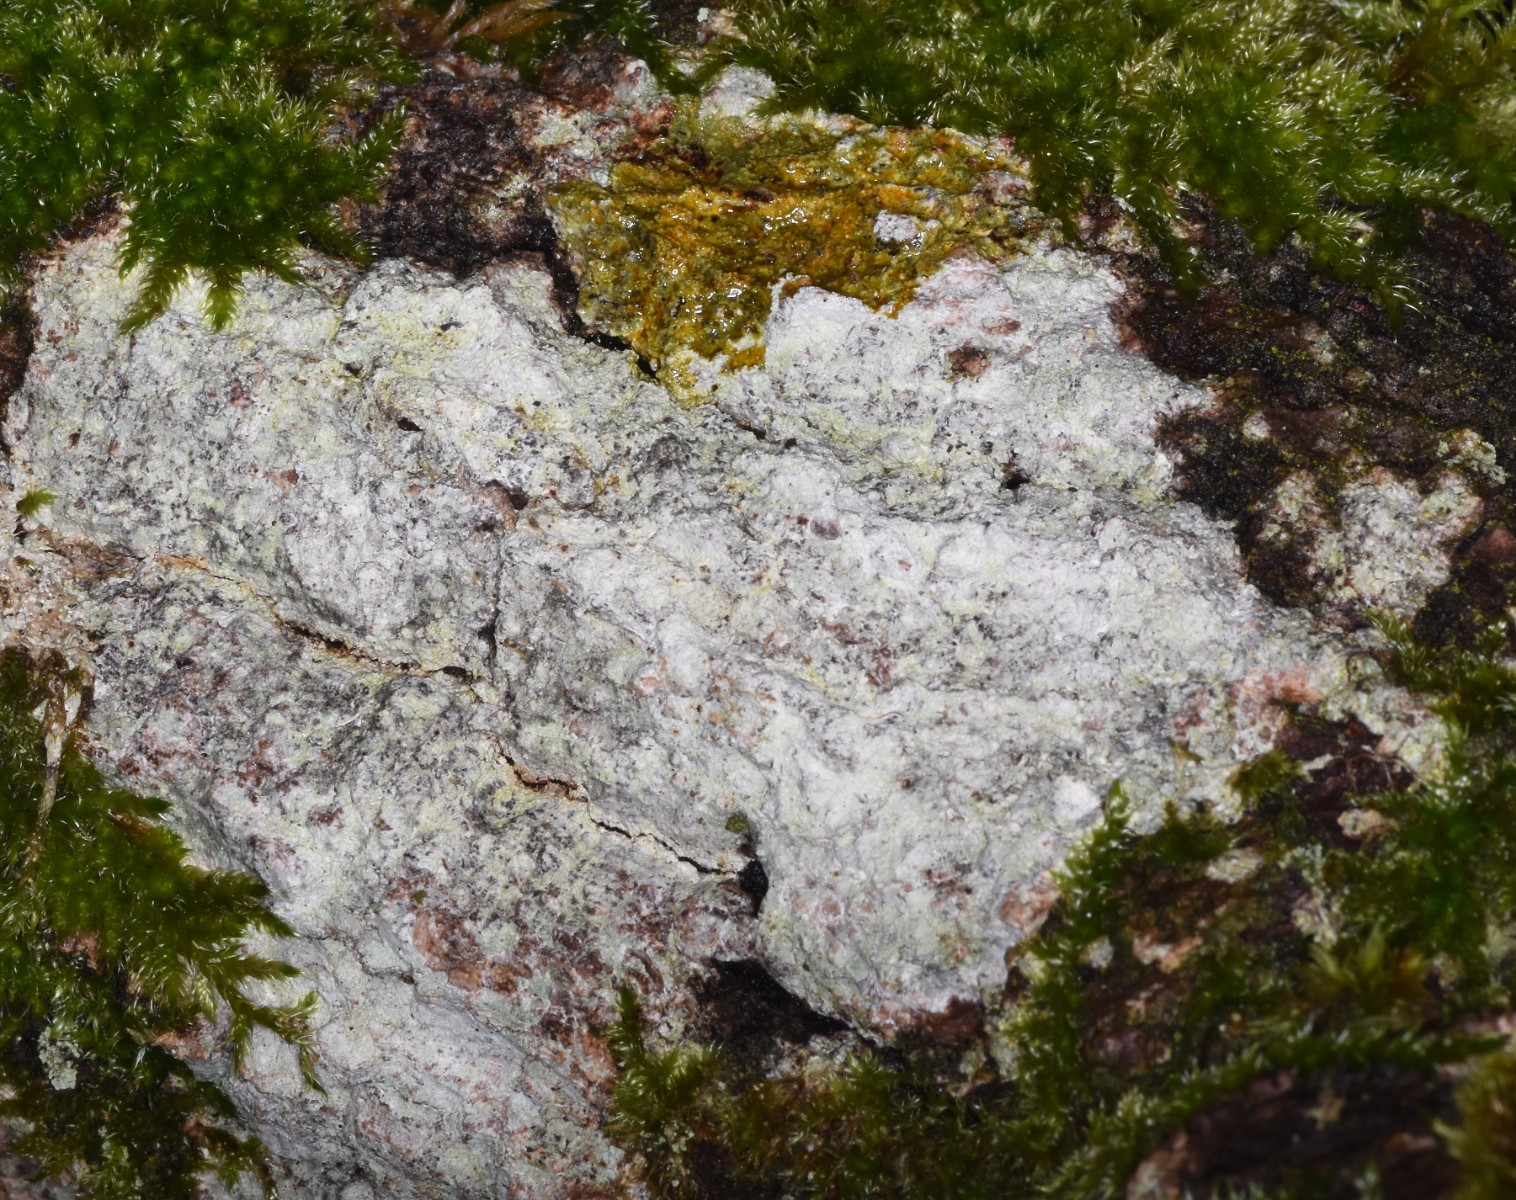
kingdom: Fungi
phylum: Ascomycota
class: Lecanoromycetes
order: Ostropales
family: Phlyctidaceae
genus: Phlyctis
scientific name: Phlyctis argena
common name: almindelig sølvlav
